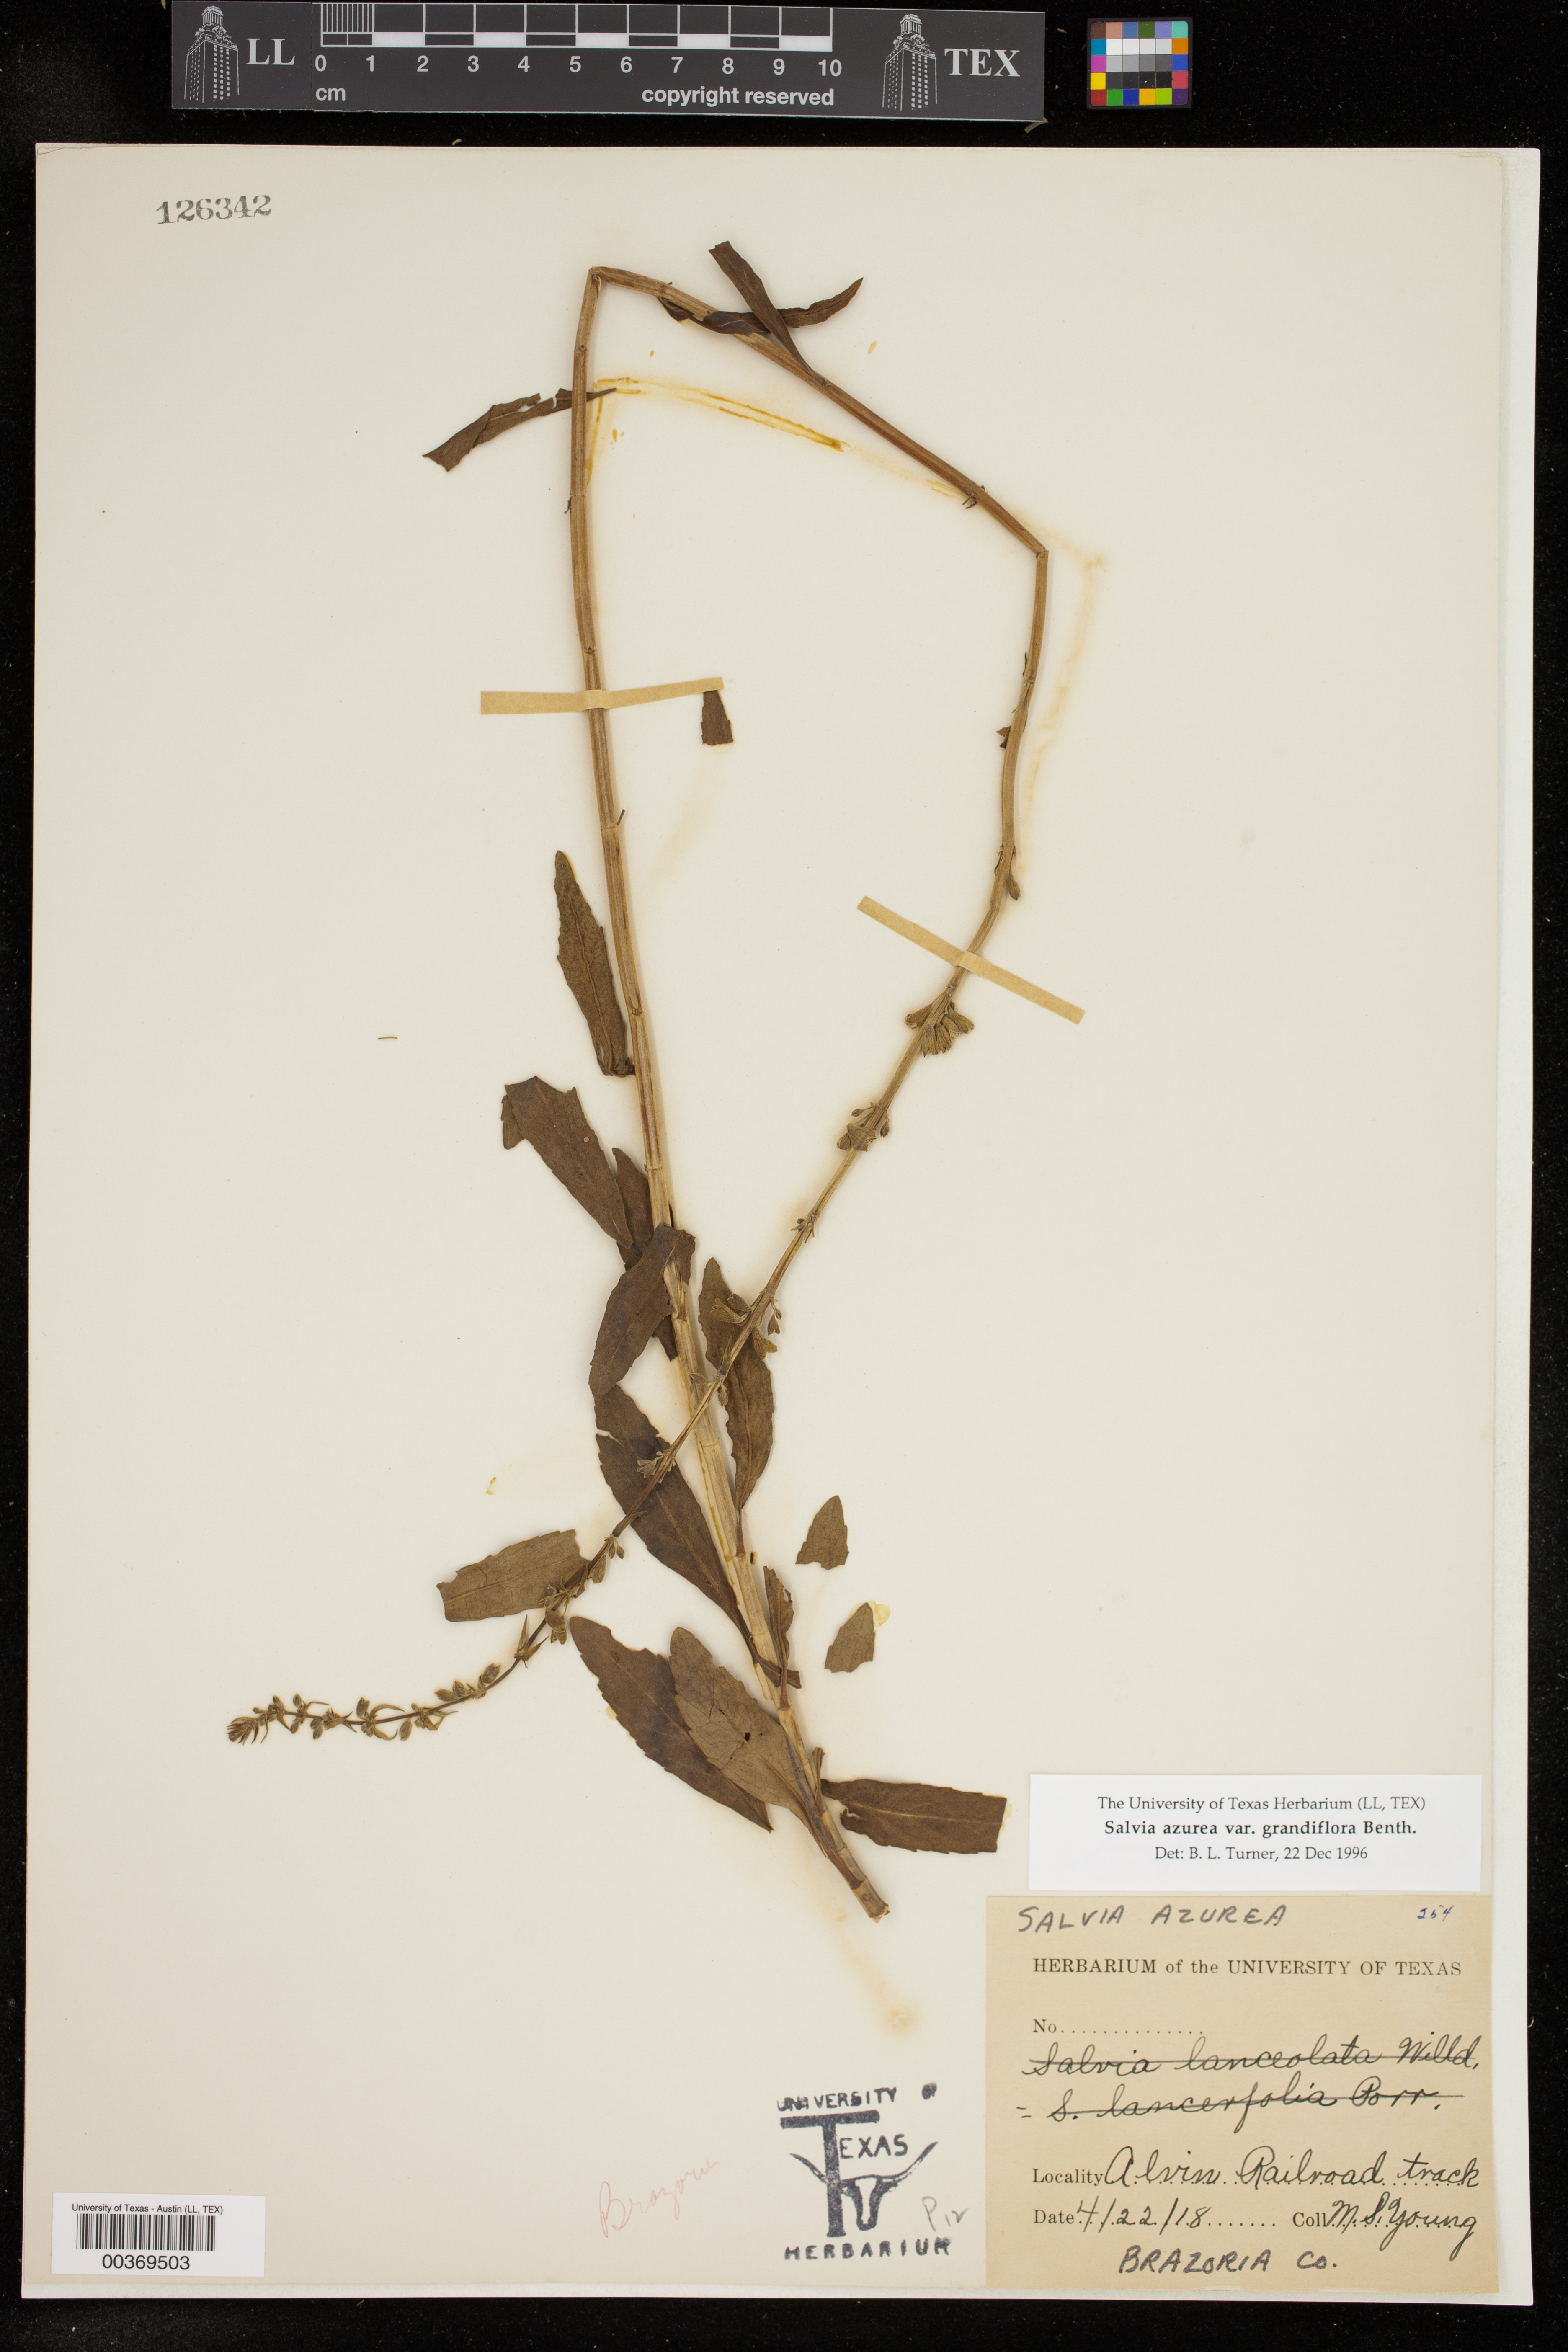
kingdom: Plantae
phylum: Tracheophyta
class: Magnoliopsida
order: Lamiales
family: Lamiaceae
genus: Salvia
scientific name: Salvia azurea
